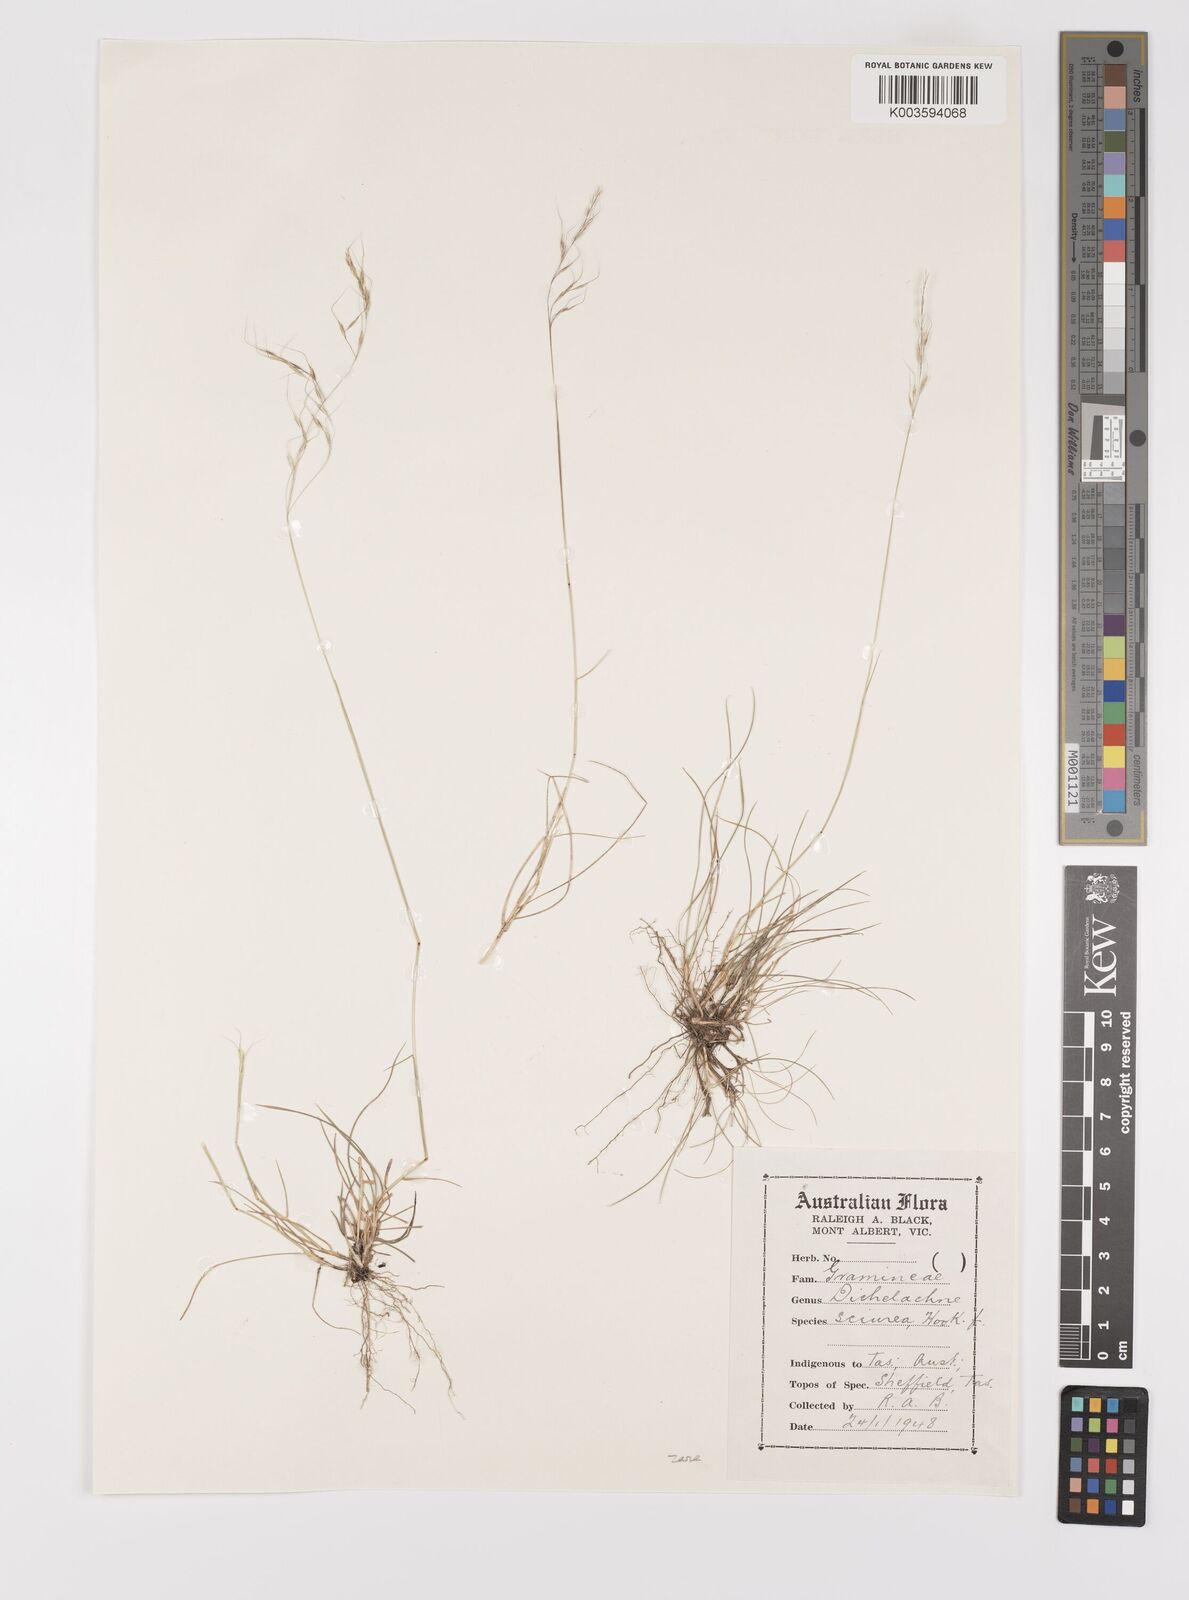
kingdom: Plantae
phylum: Tracheophyta
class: Liliopsida
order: Poales
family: Poaceae
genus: Dichelachne
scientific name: Dichelachne rara
